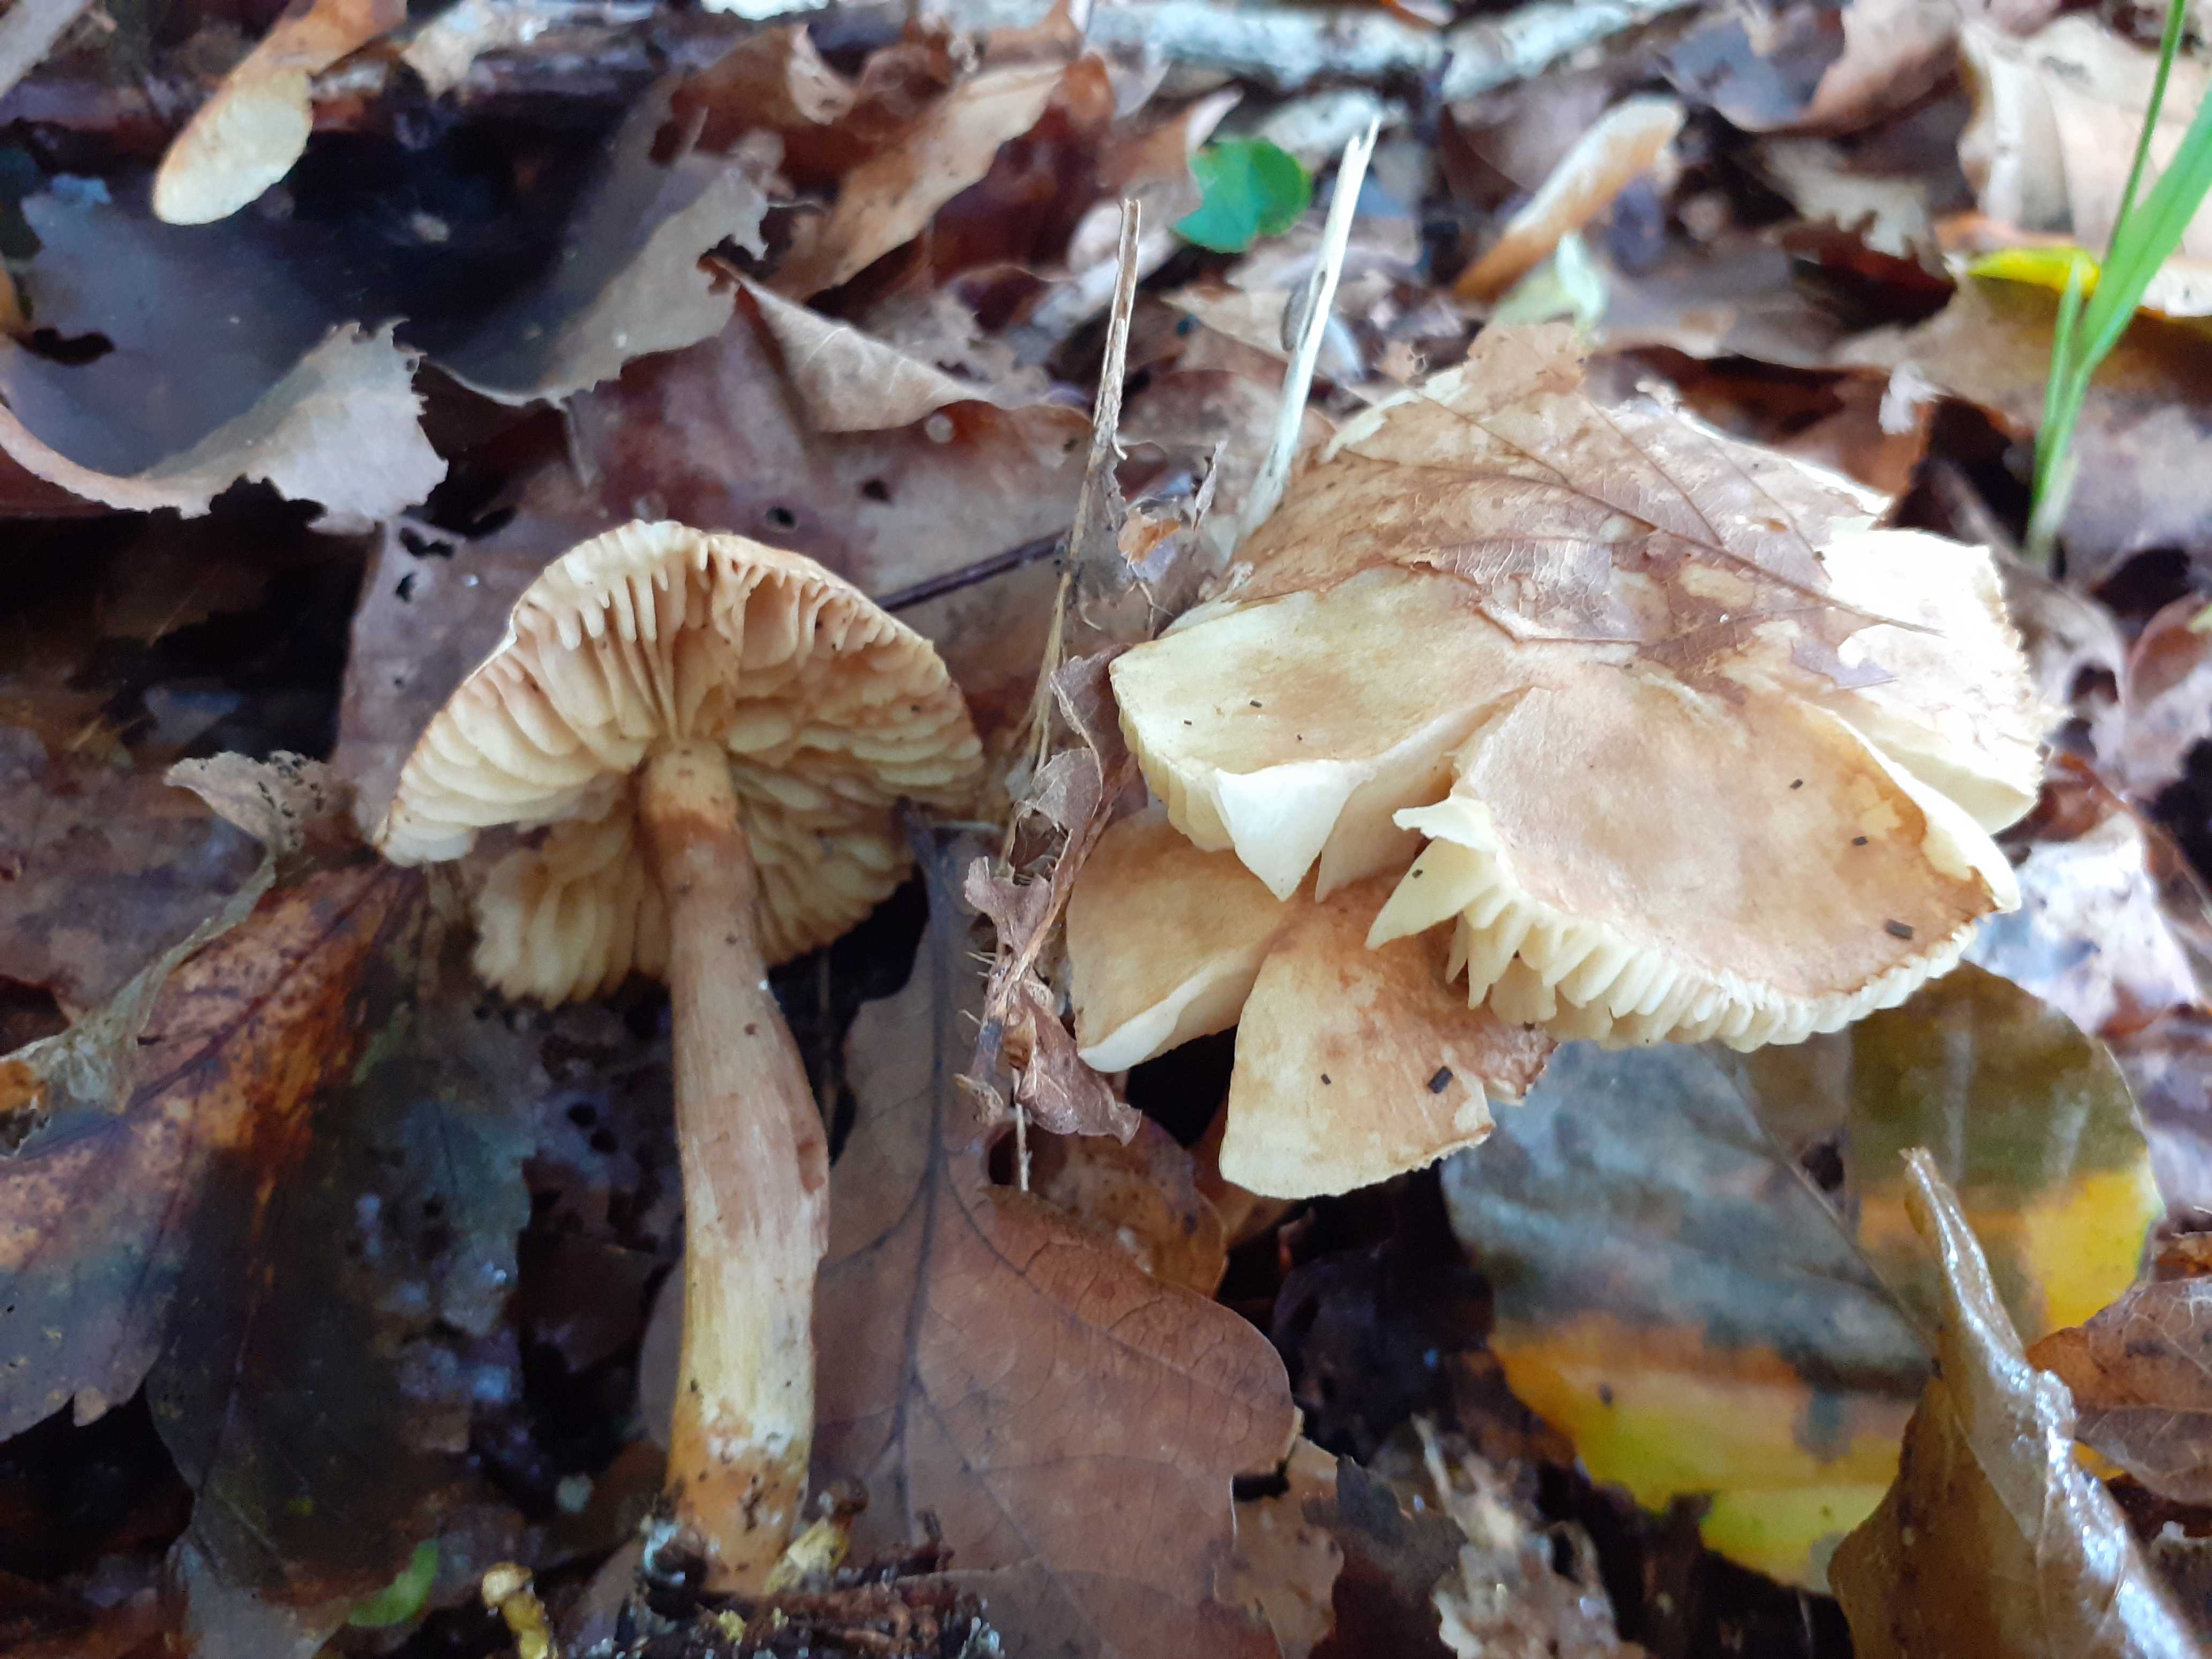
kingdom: Fungi
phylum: Basidiomycota
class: Agaricomycetes
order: Agaricales
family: Tricholomataceae
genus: Tricholoma
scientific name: Tricholoma sulphureum
